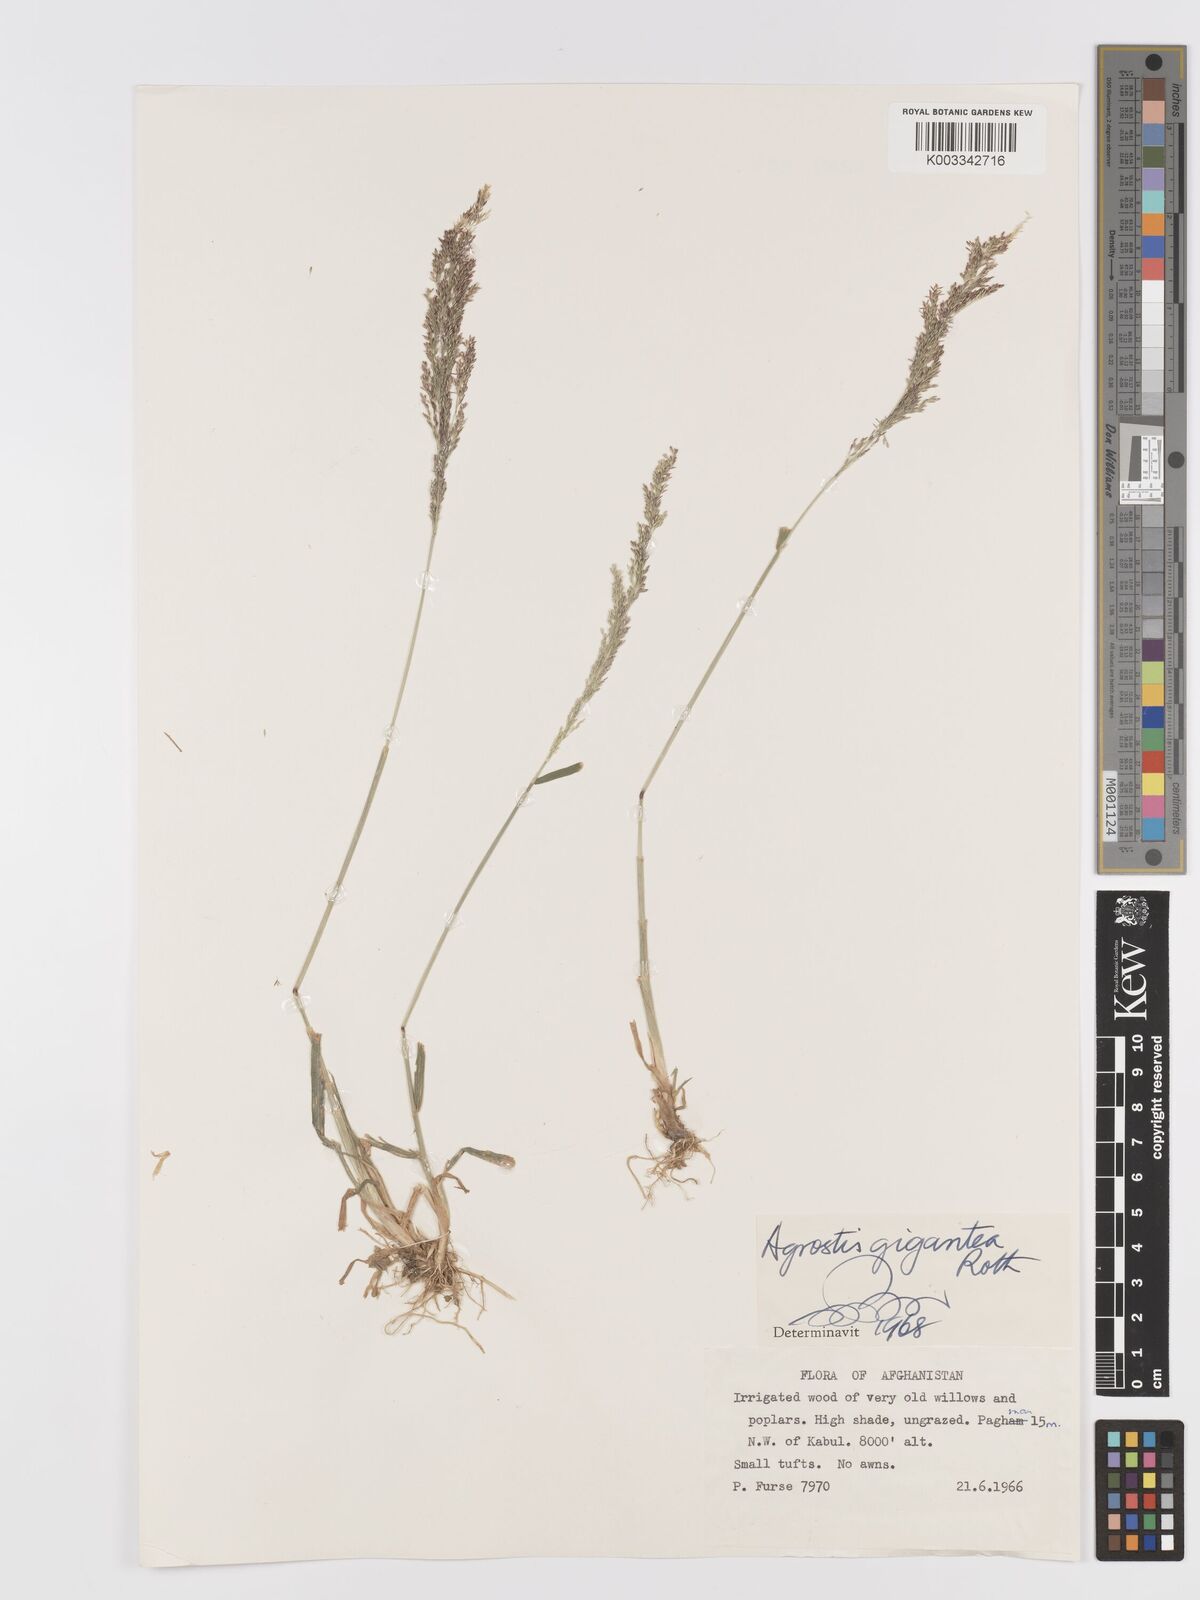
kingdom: Plantae
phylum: Tracheophyta
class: Liliopsida
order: Poales
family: Poaceae
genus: Agrostis
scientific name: Agrostis gigantea
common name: Black bent
